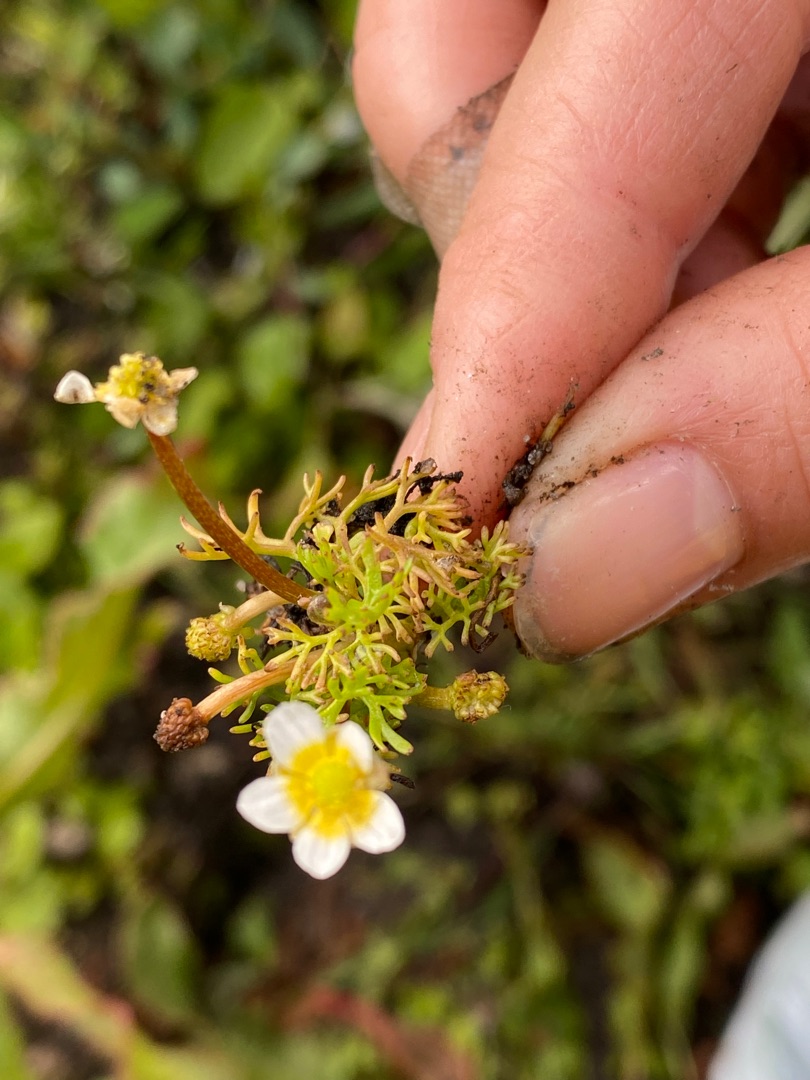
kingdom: Plantae
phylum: Tracheophyta
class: Magnoliopsida
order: Ranunculales
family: Ranunculaceae
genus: Ranunculus
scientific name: Ranunculus
